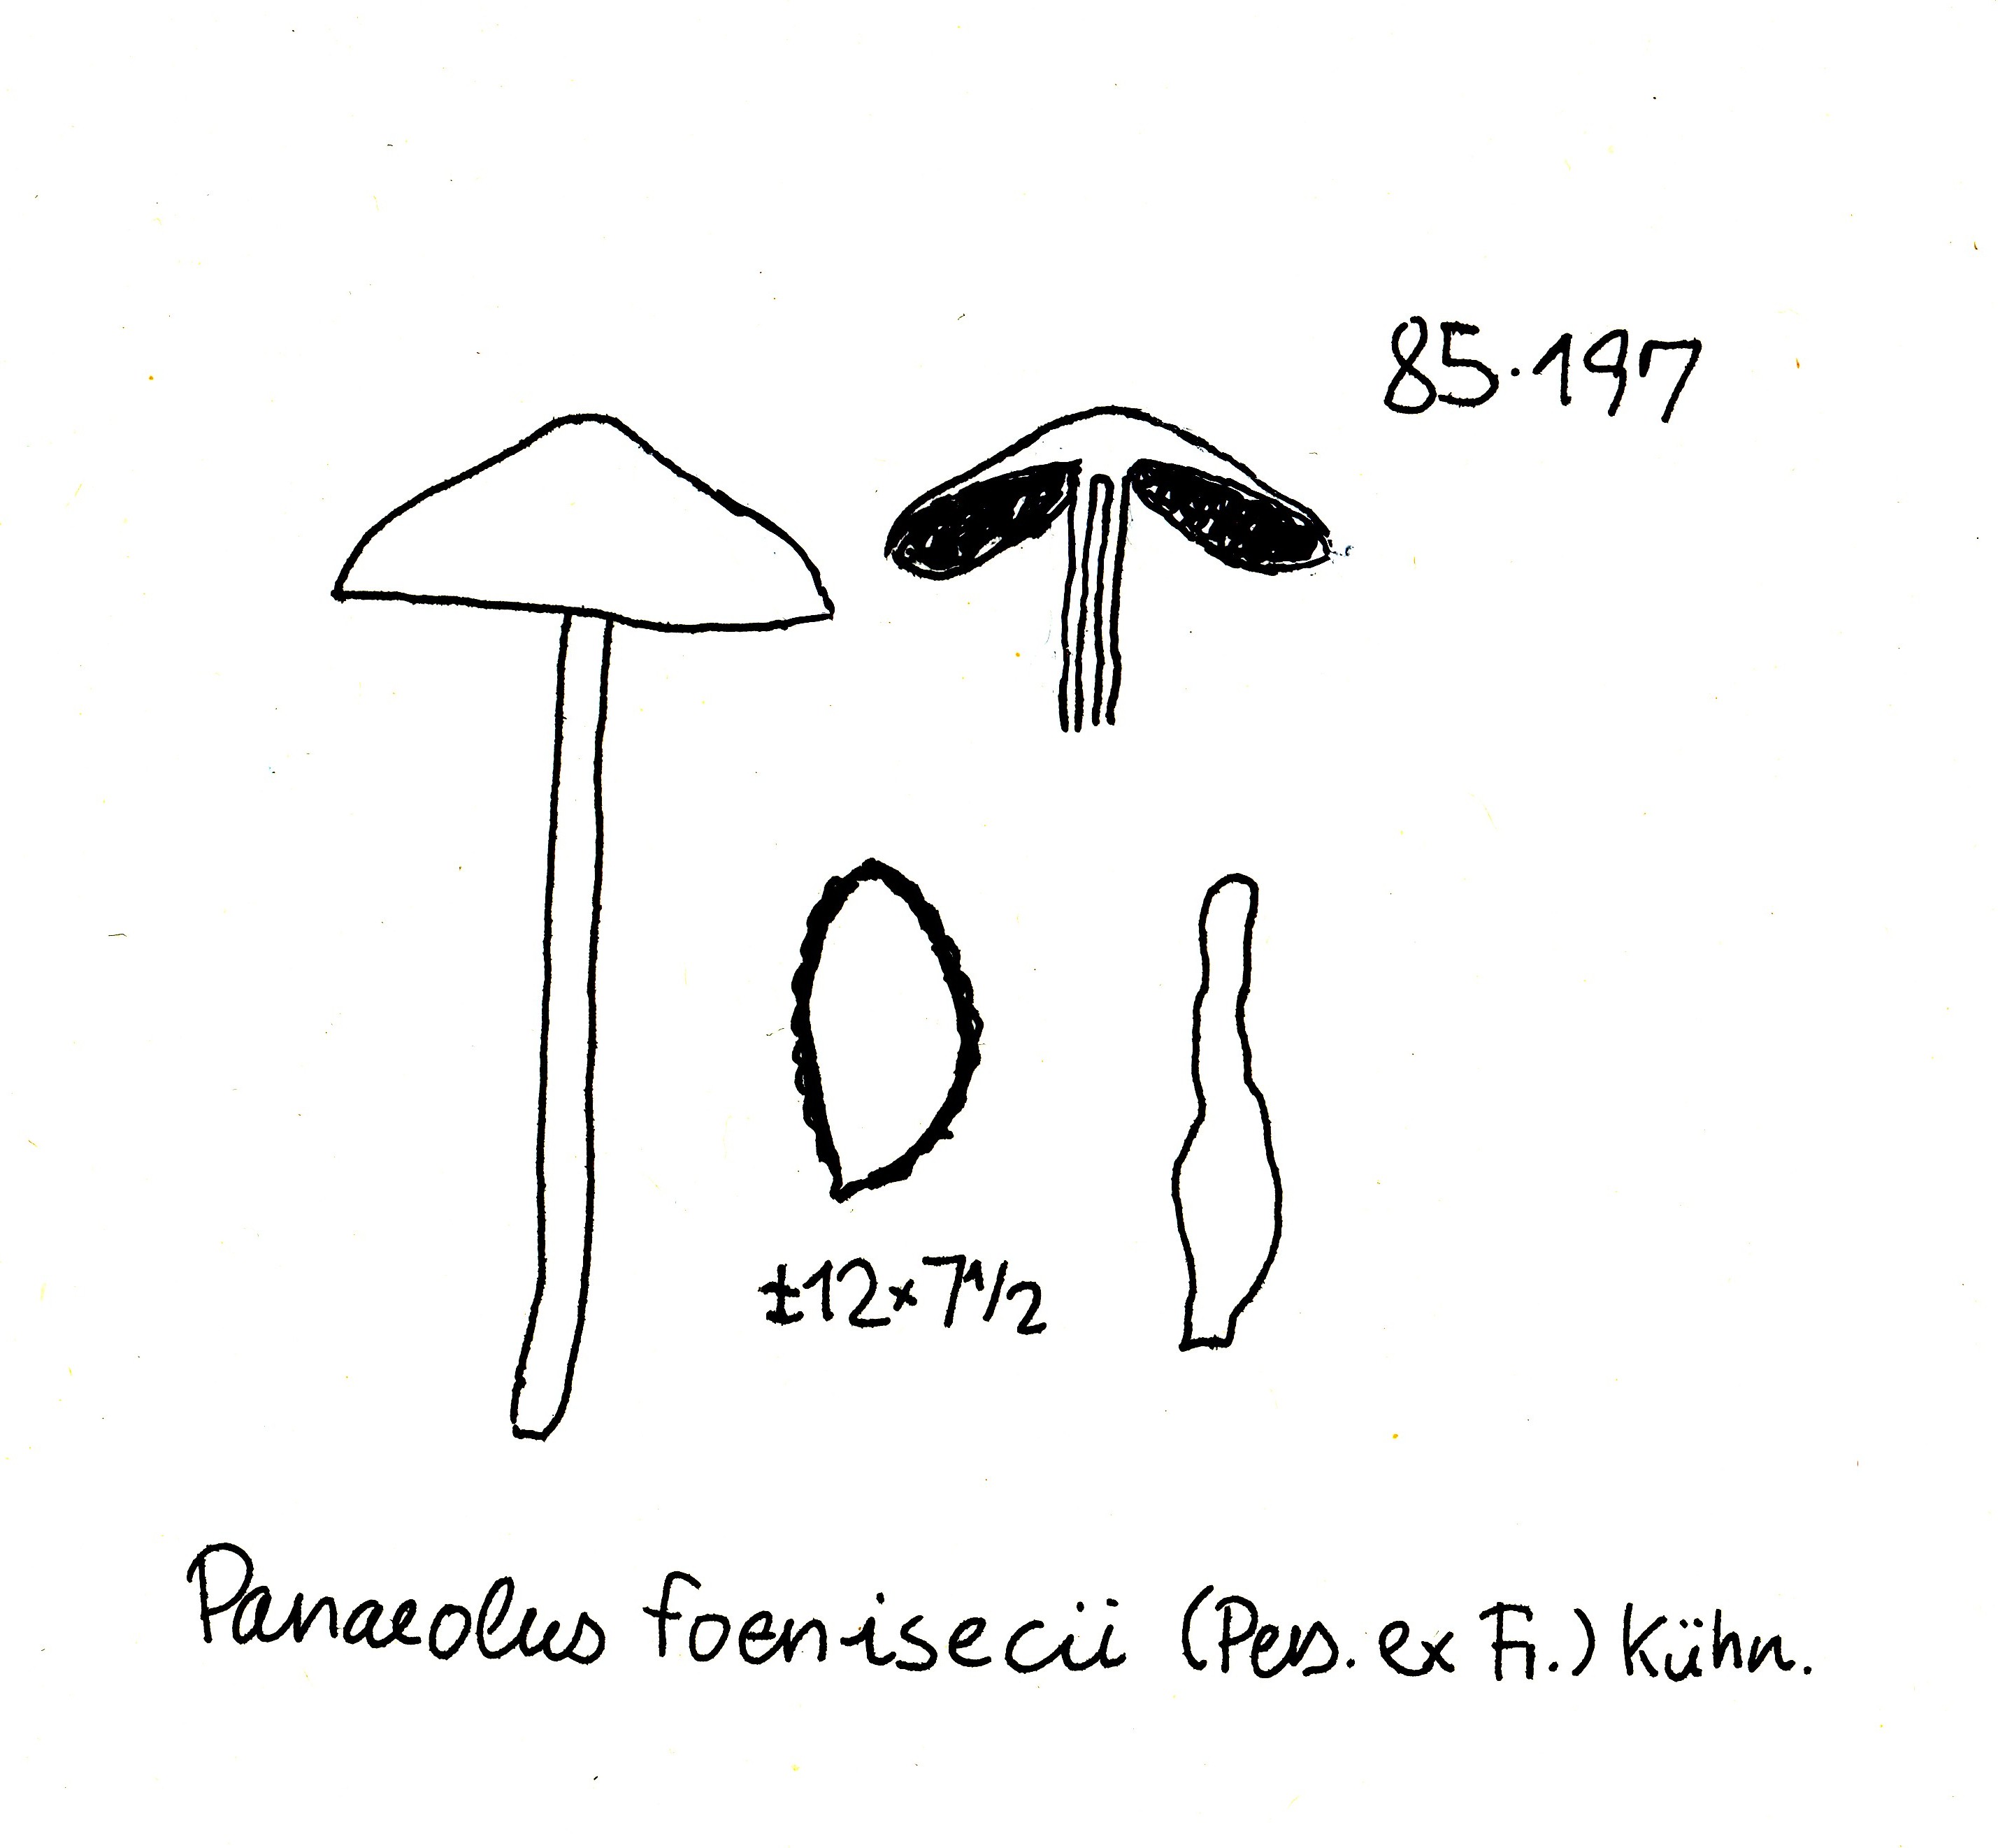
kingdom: Fungi
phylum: Basidiomycota
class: Agaricomycetes
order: Agaricales
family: Bolbitiaceae
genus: Panaeolina
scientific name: Panaeolina foenisecii
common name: høslætsvamp
